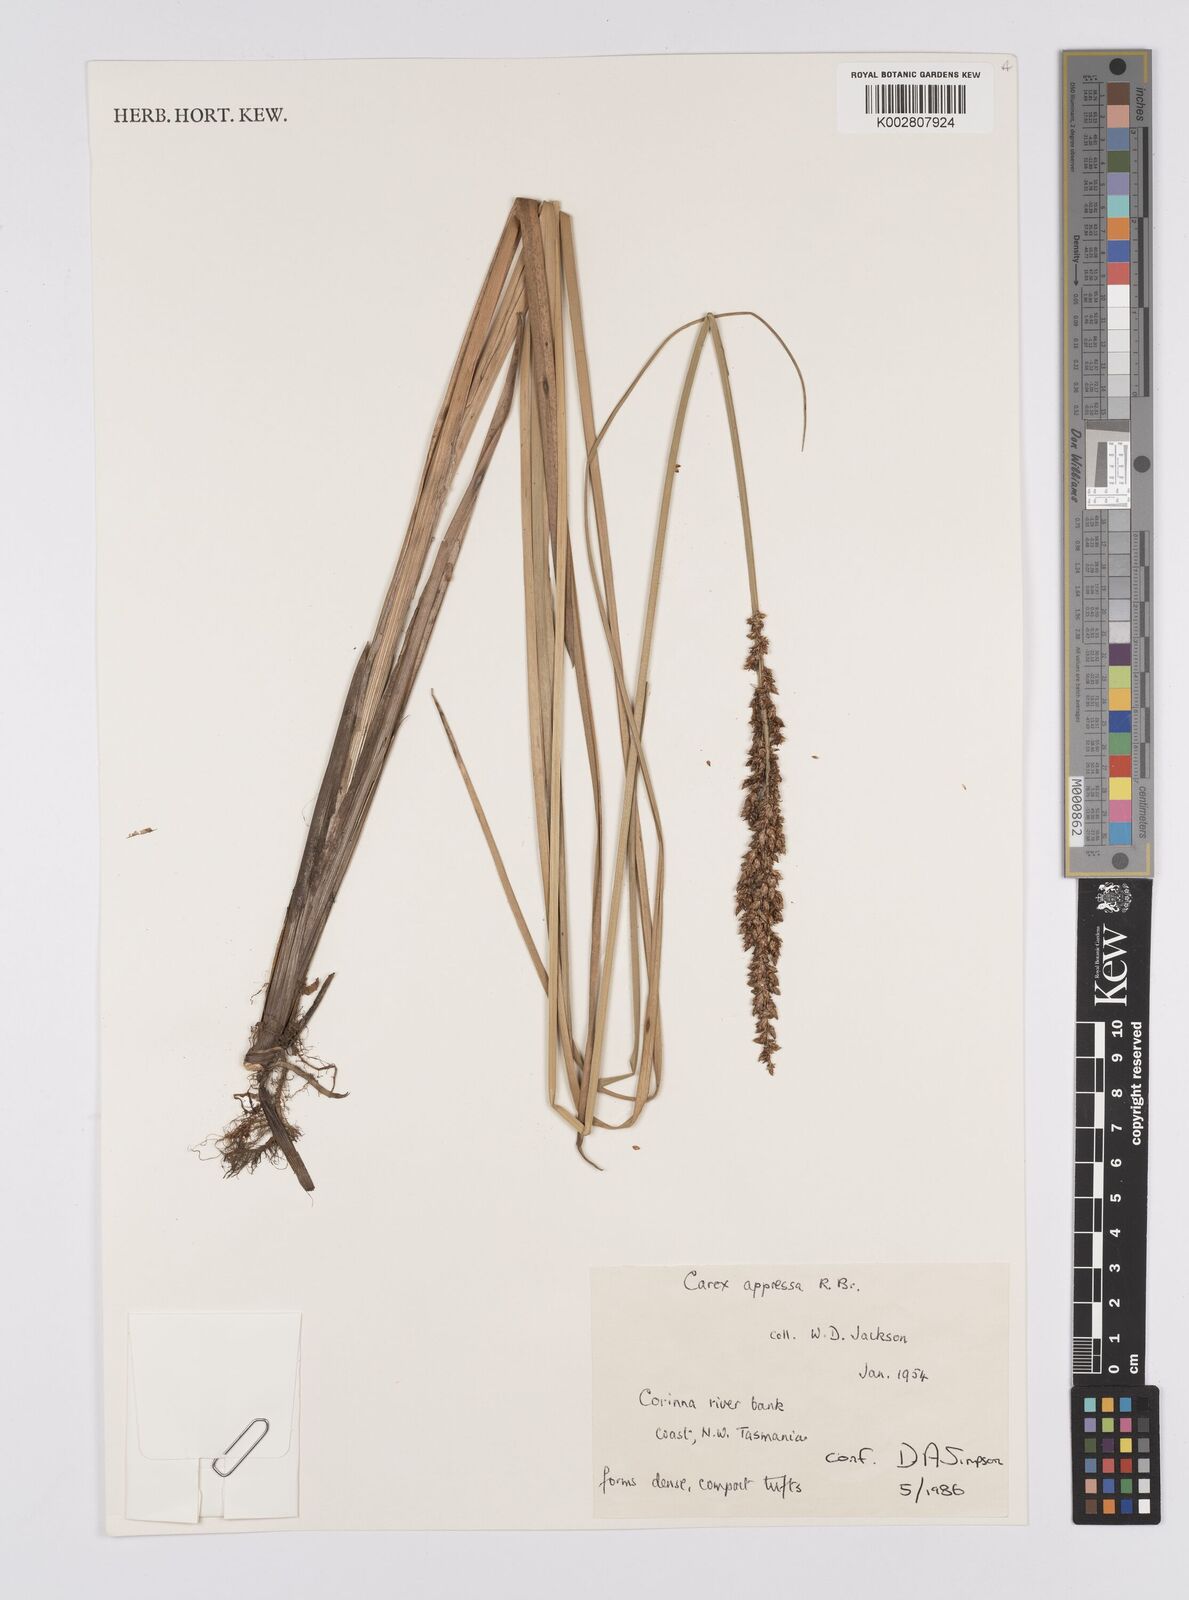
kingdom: Plantae
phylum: Tracheophyta
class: Liliopsida
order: Poales
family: Cyperaceae
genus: Carex
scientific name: Carex appressa
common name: Tussock sedge
